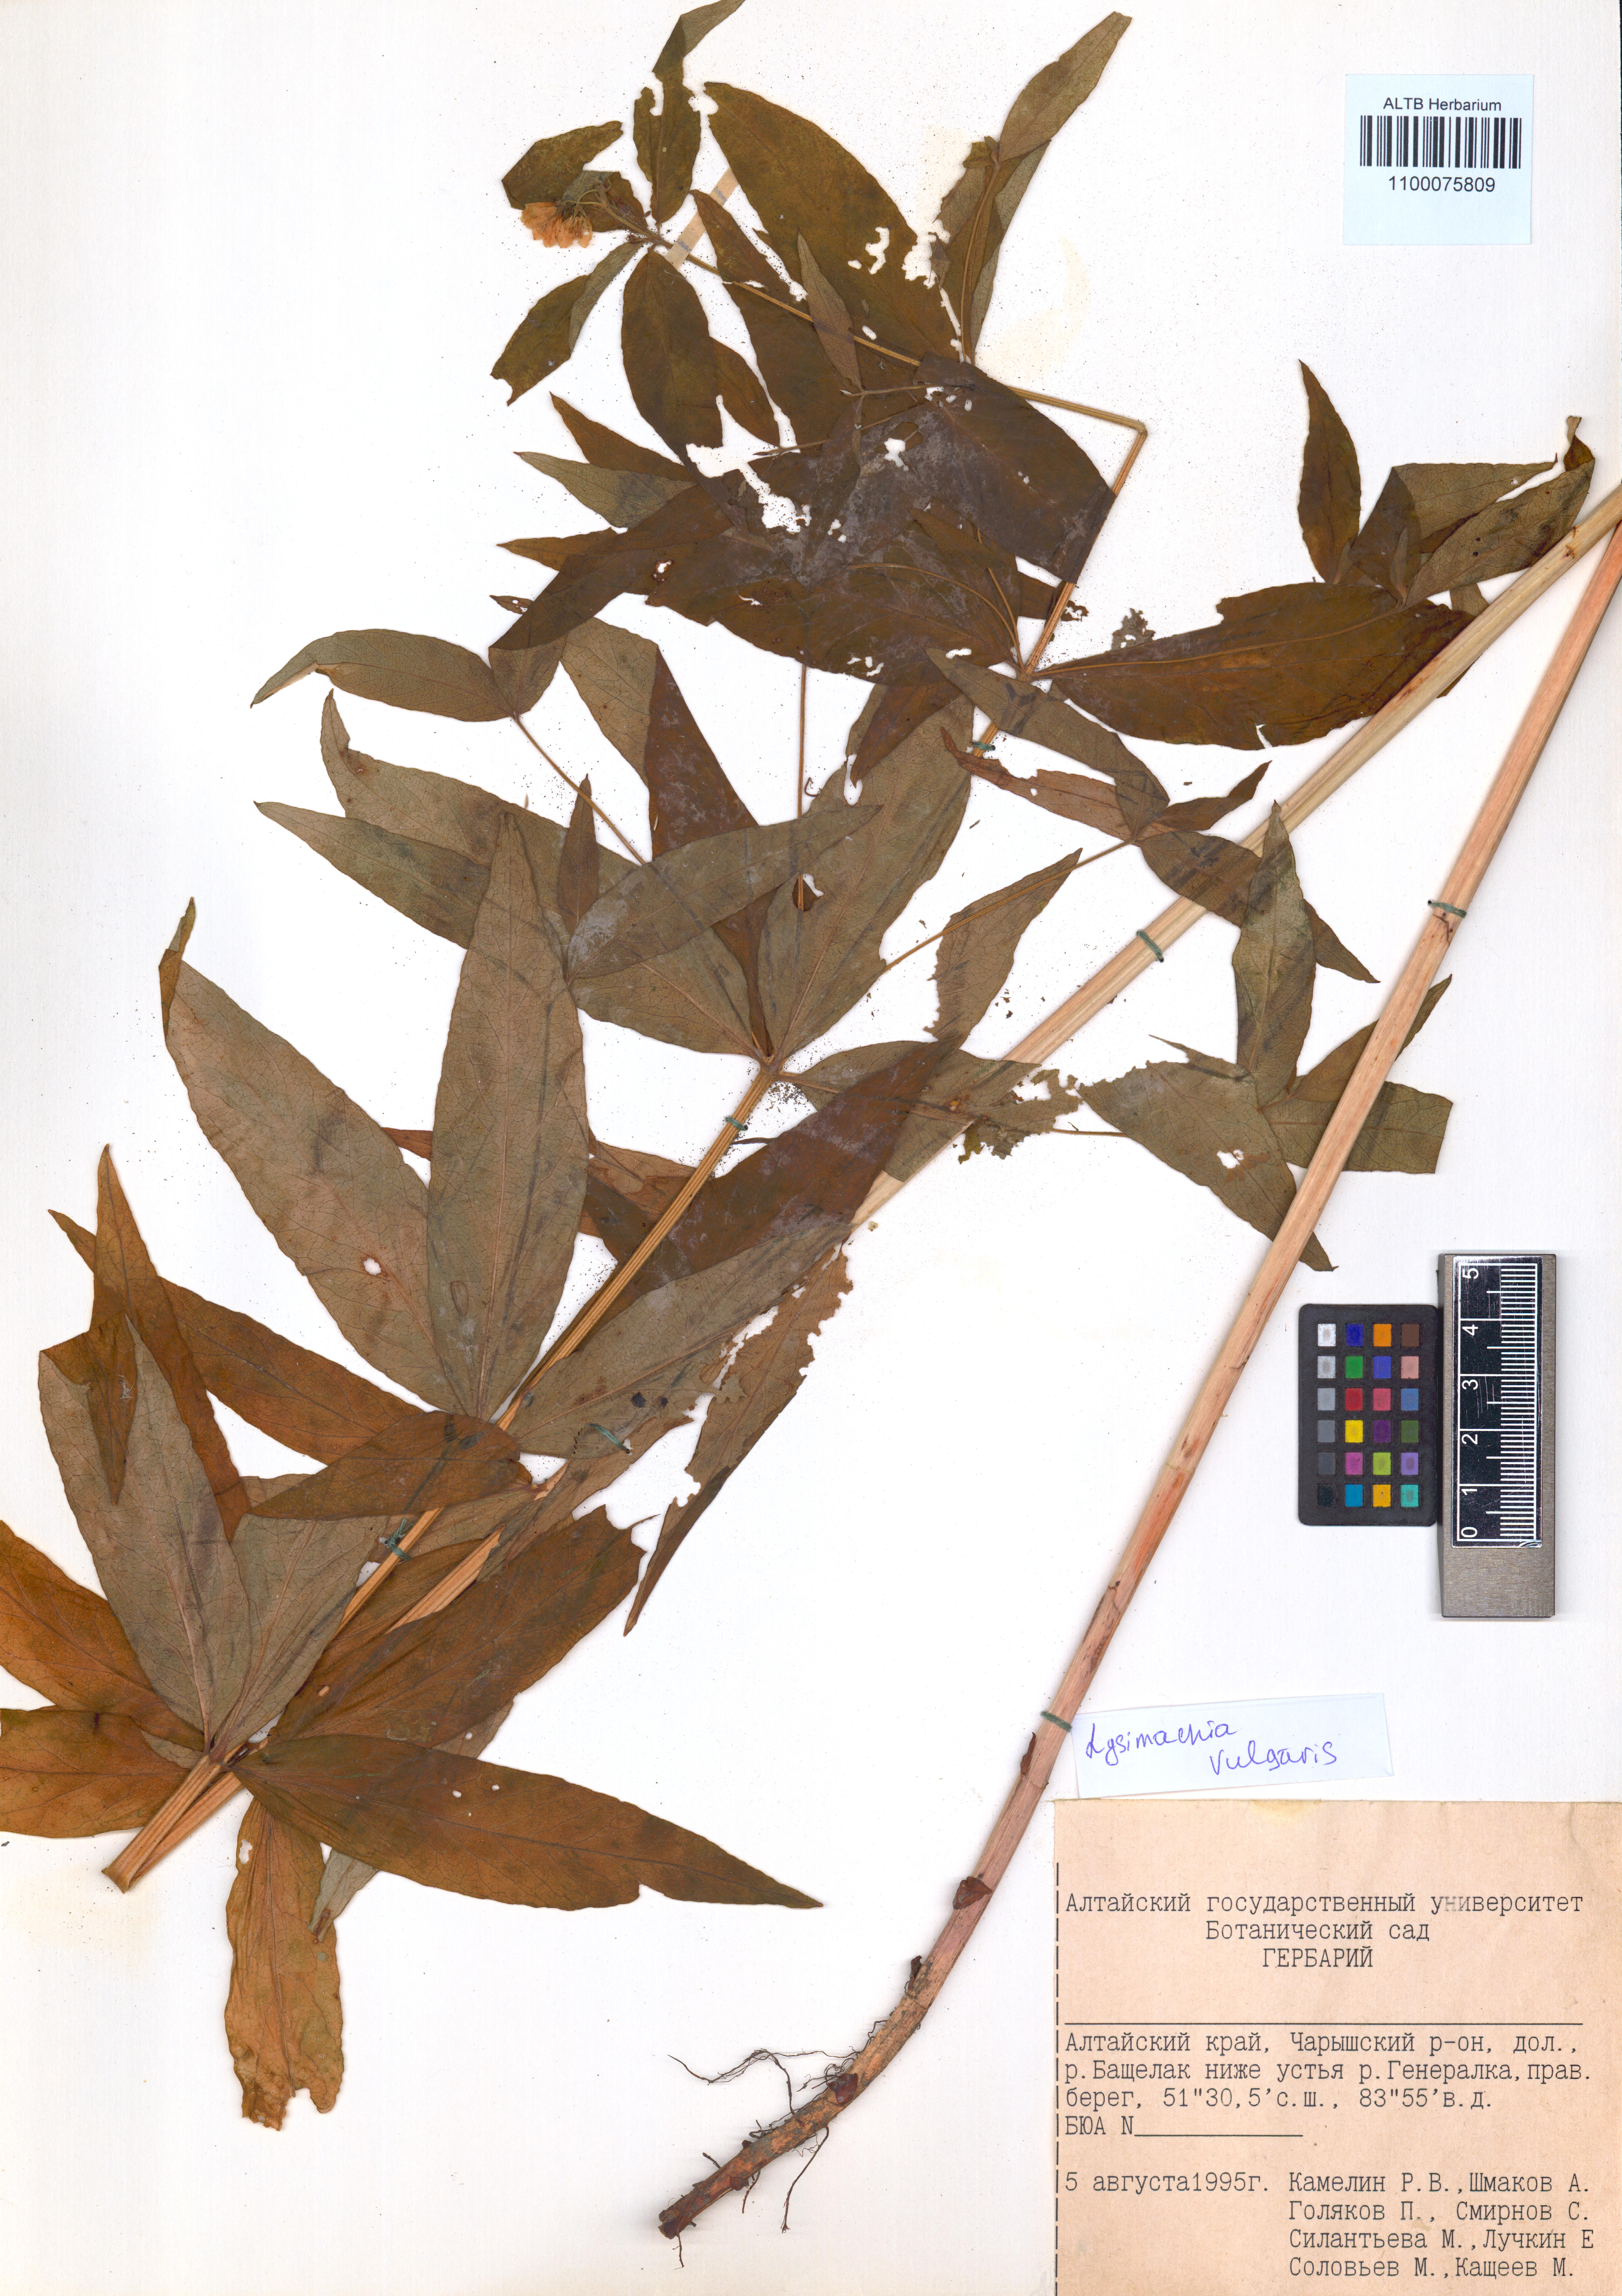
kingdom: Plantae
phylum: Tracheophyta
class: Magnoliopsida
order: Ericales
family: Primulaceae
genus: Lysimachia
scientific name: Lysimachia vulgaris
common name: Yellow loosestrife
